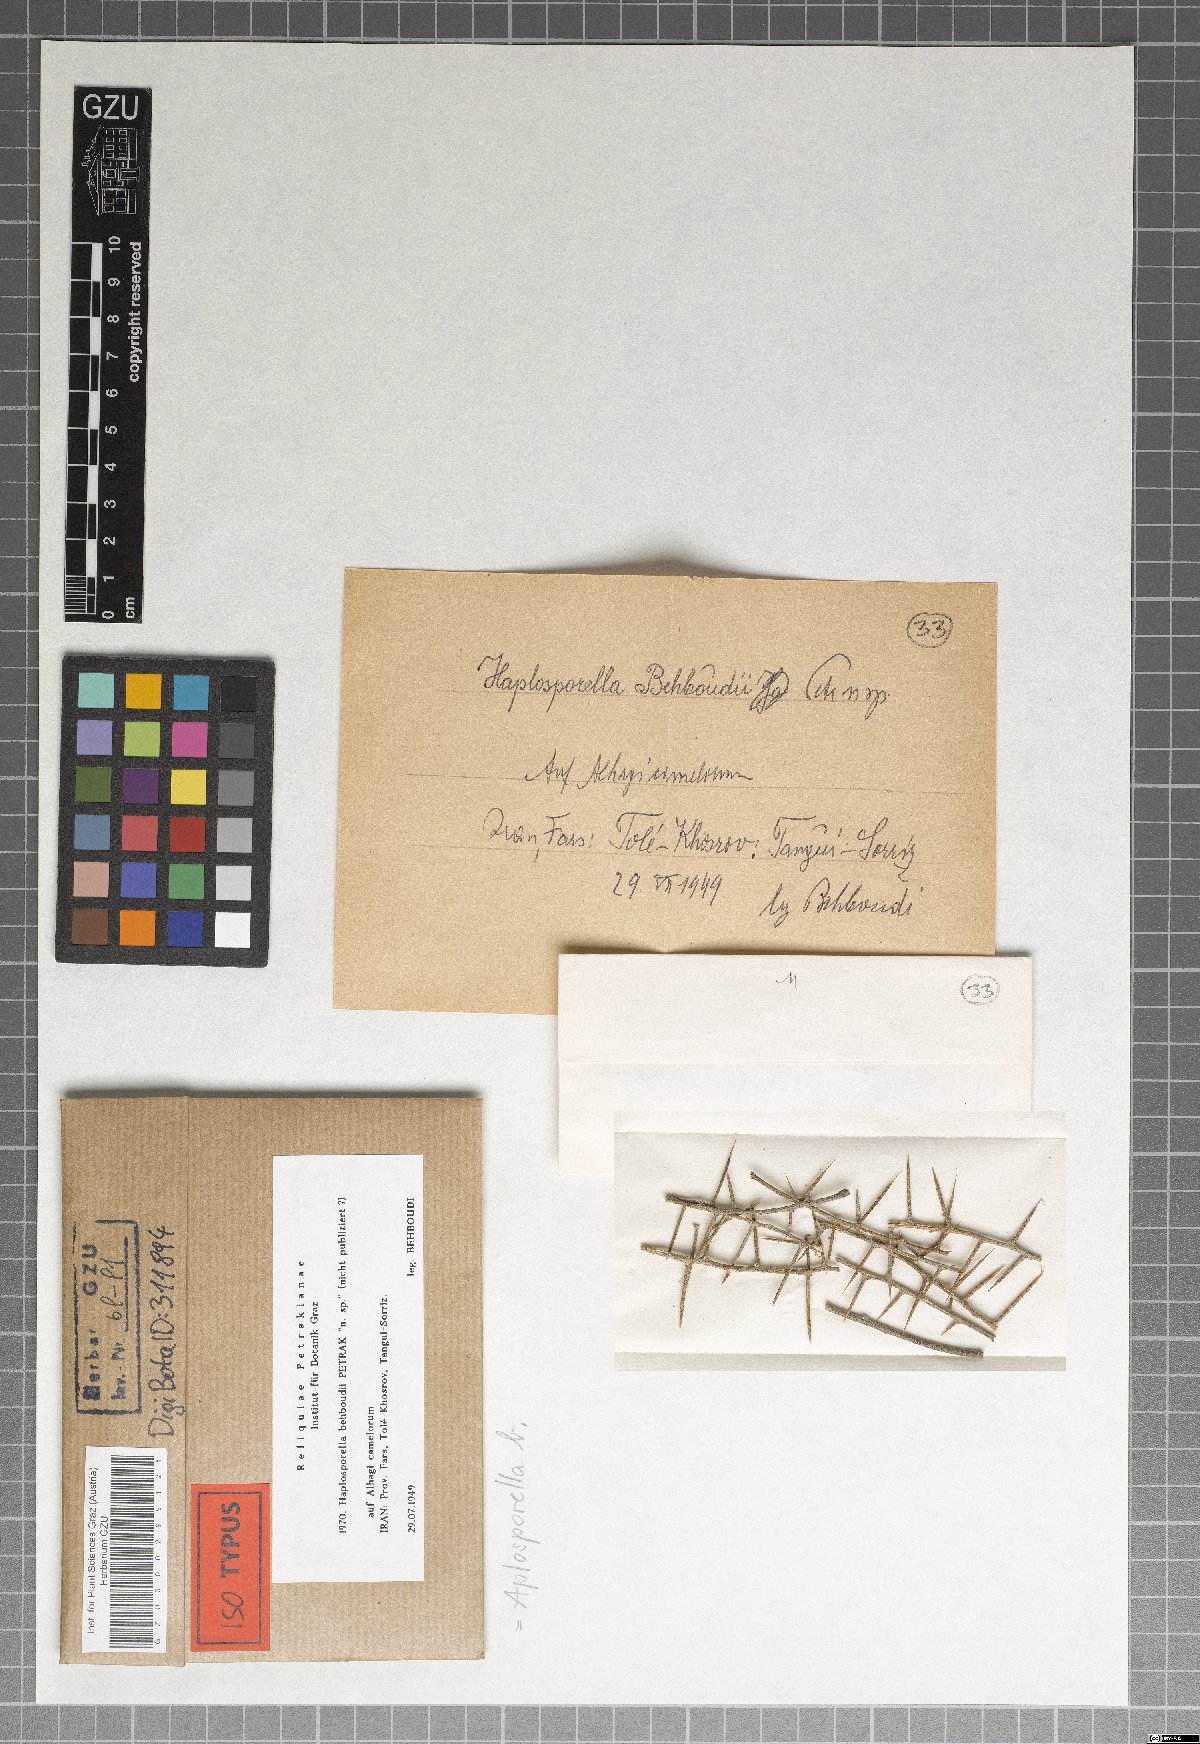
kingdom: Fungi
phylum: Ascomycota
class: Dothideomycetes
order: Botryosphaeriales
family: Botryosphaeriaceae
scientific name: Botryosphaeriaceae
